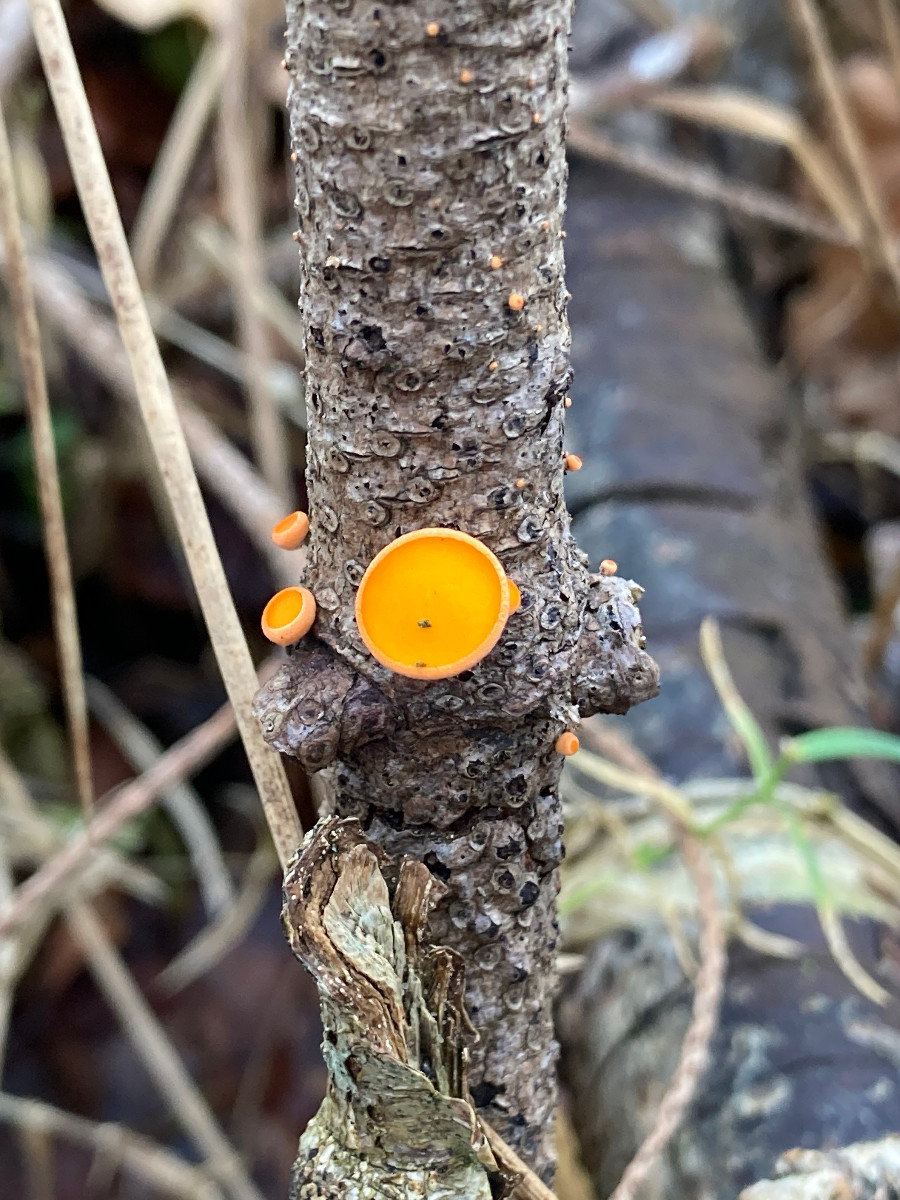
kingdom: Fungi
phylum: Ascomycota
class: Pezizomycetes
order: Pezizales
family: Sarcoscyphaceae
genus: Pithya
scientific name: Pithya vulgaris
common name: stor dukatbæger
